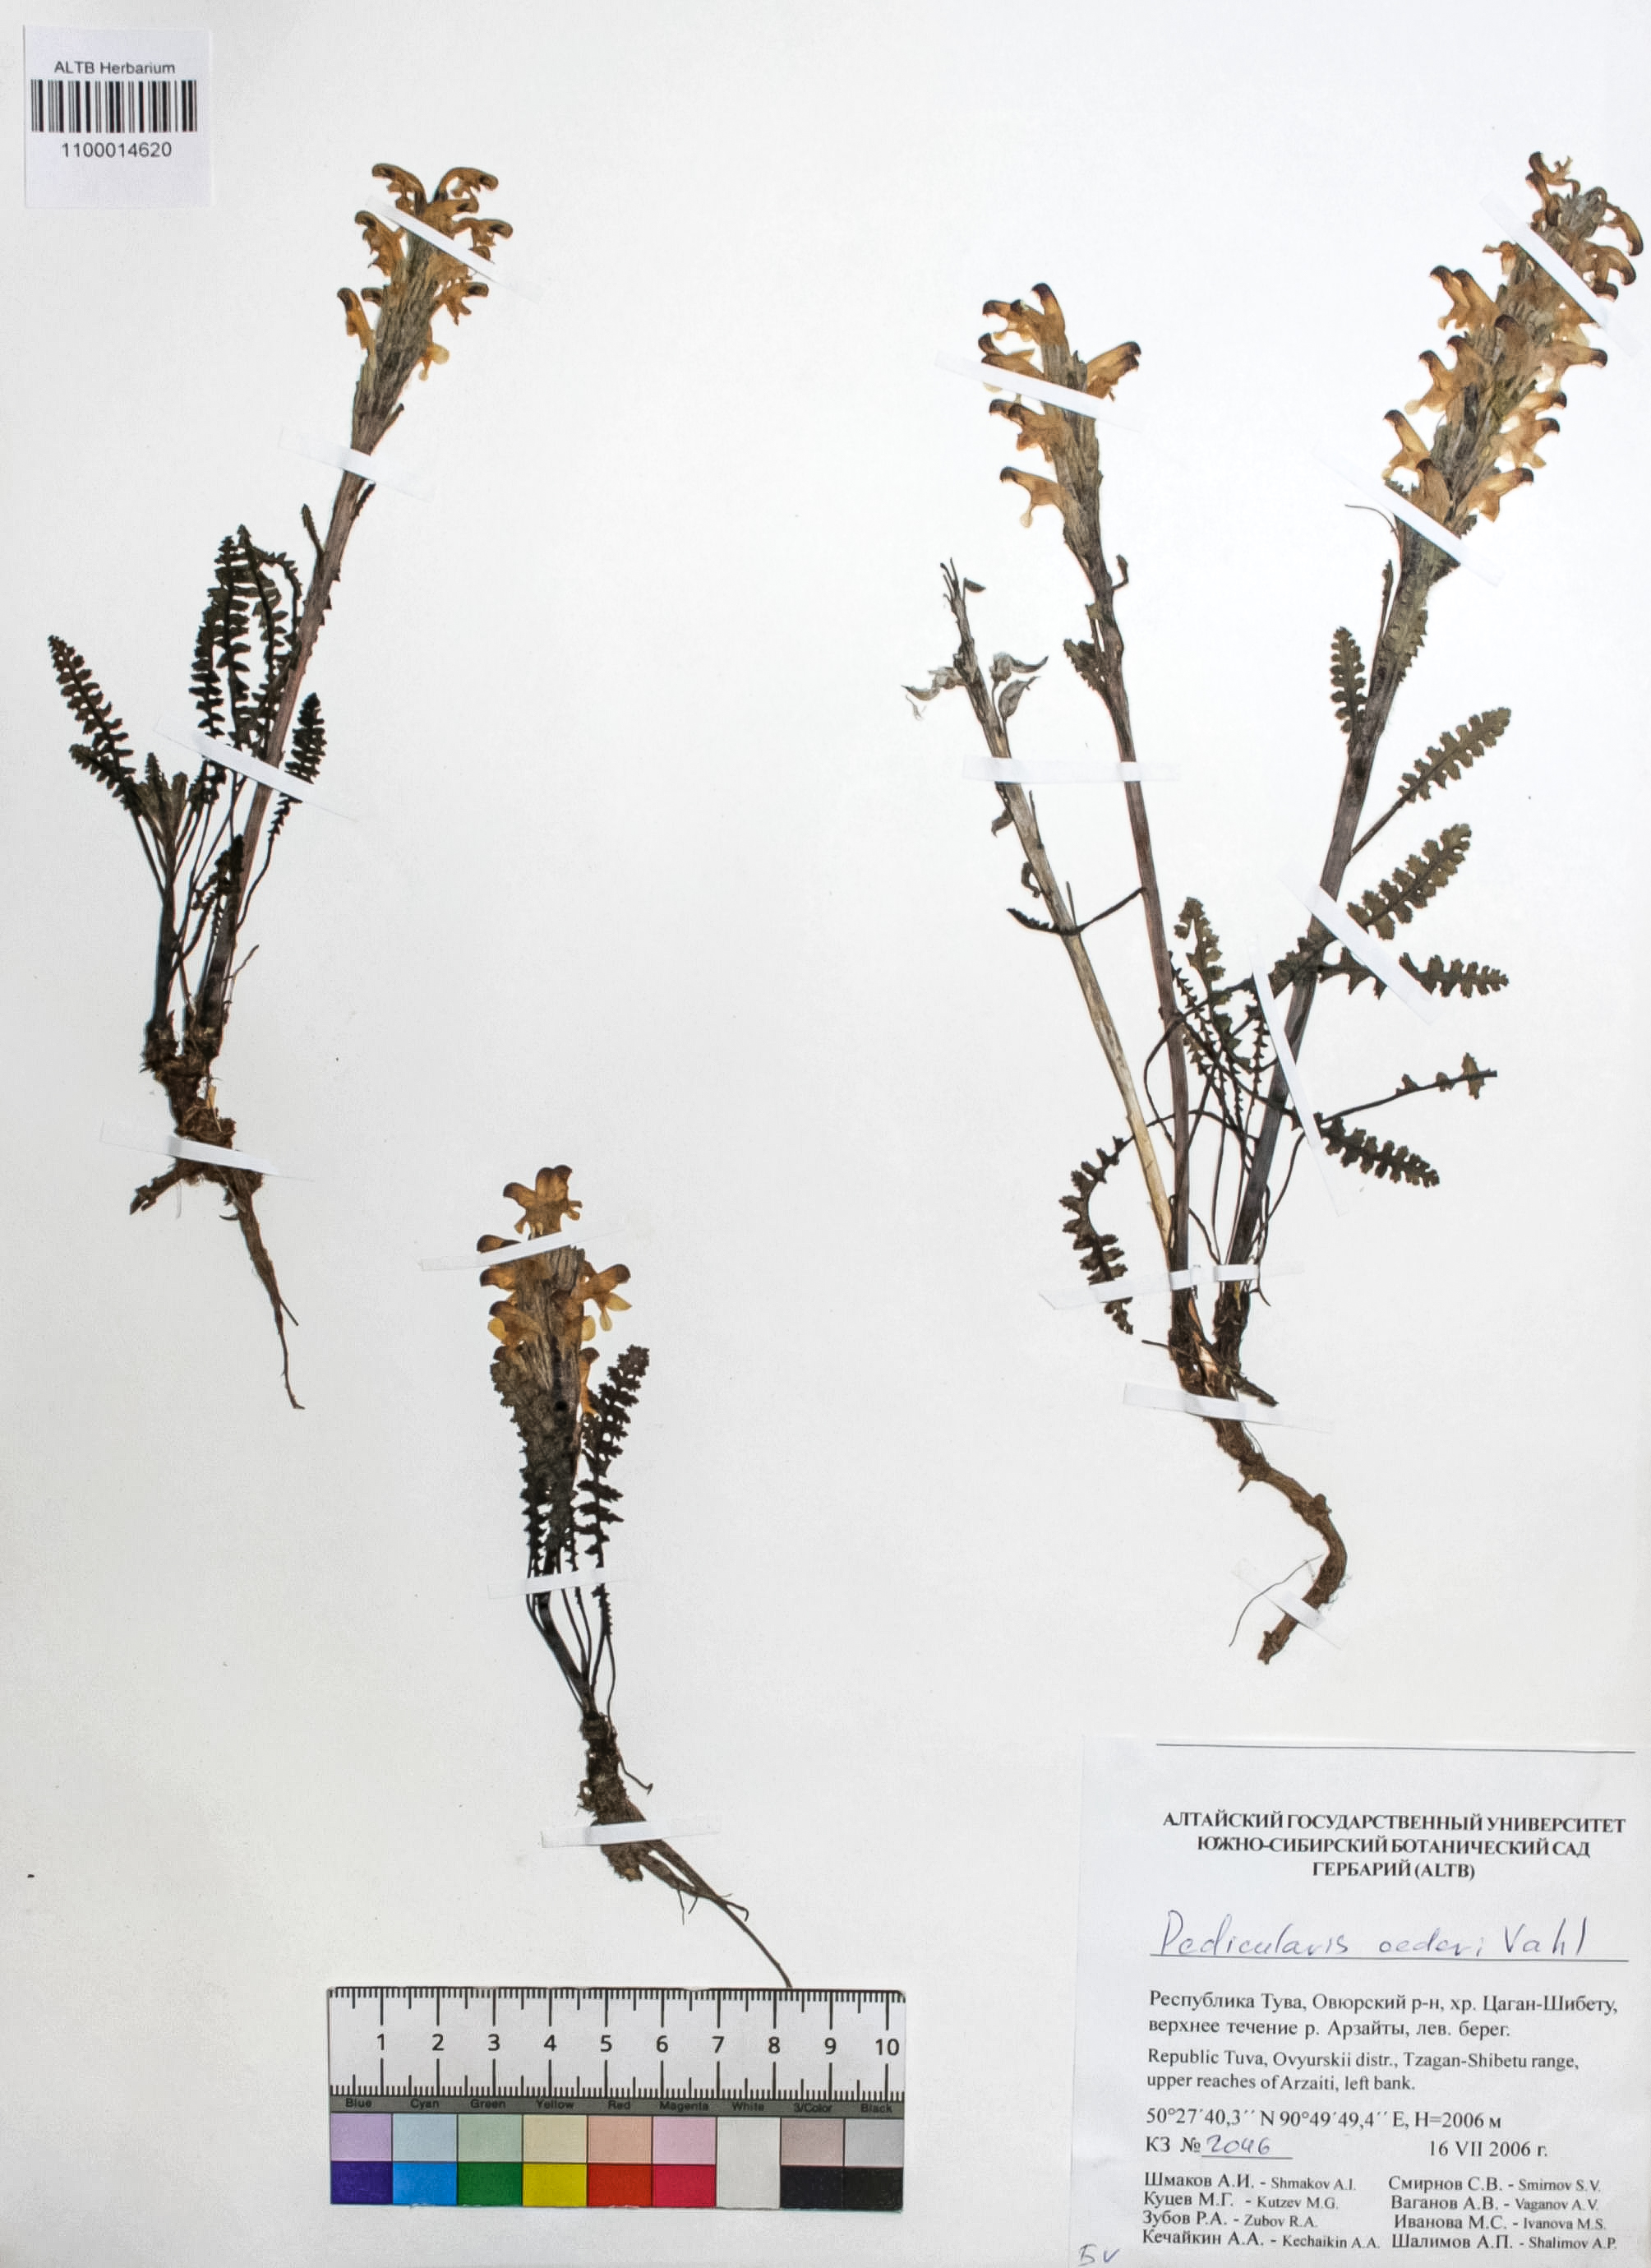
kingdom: Plantae
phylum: Tracheophyta
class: Magnoliopsida
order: Caryophyllales
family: Caryophyllaceae
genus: Silene
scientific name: Silene graminifolia
